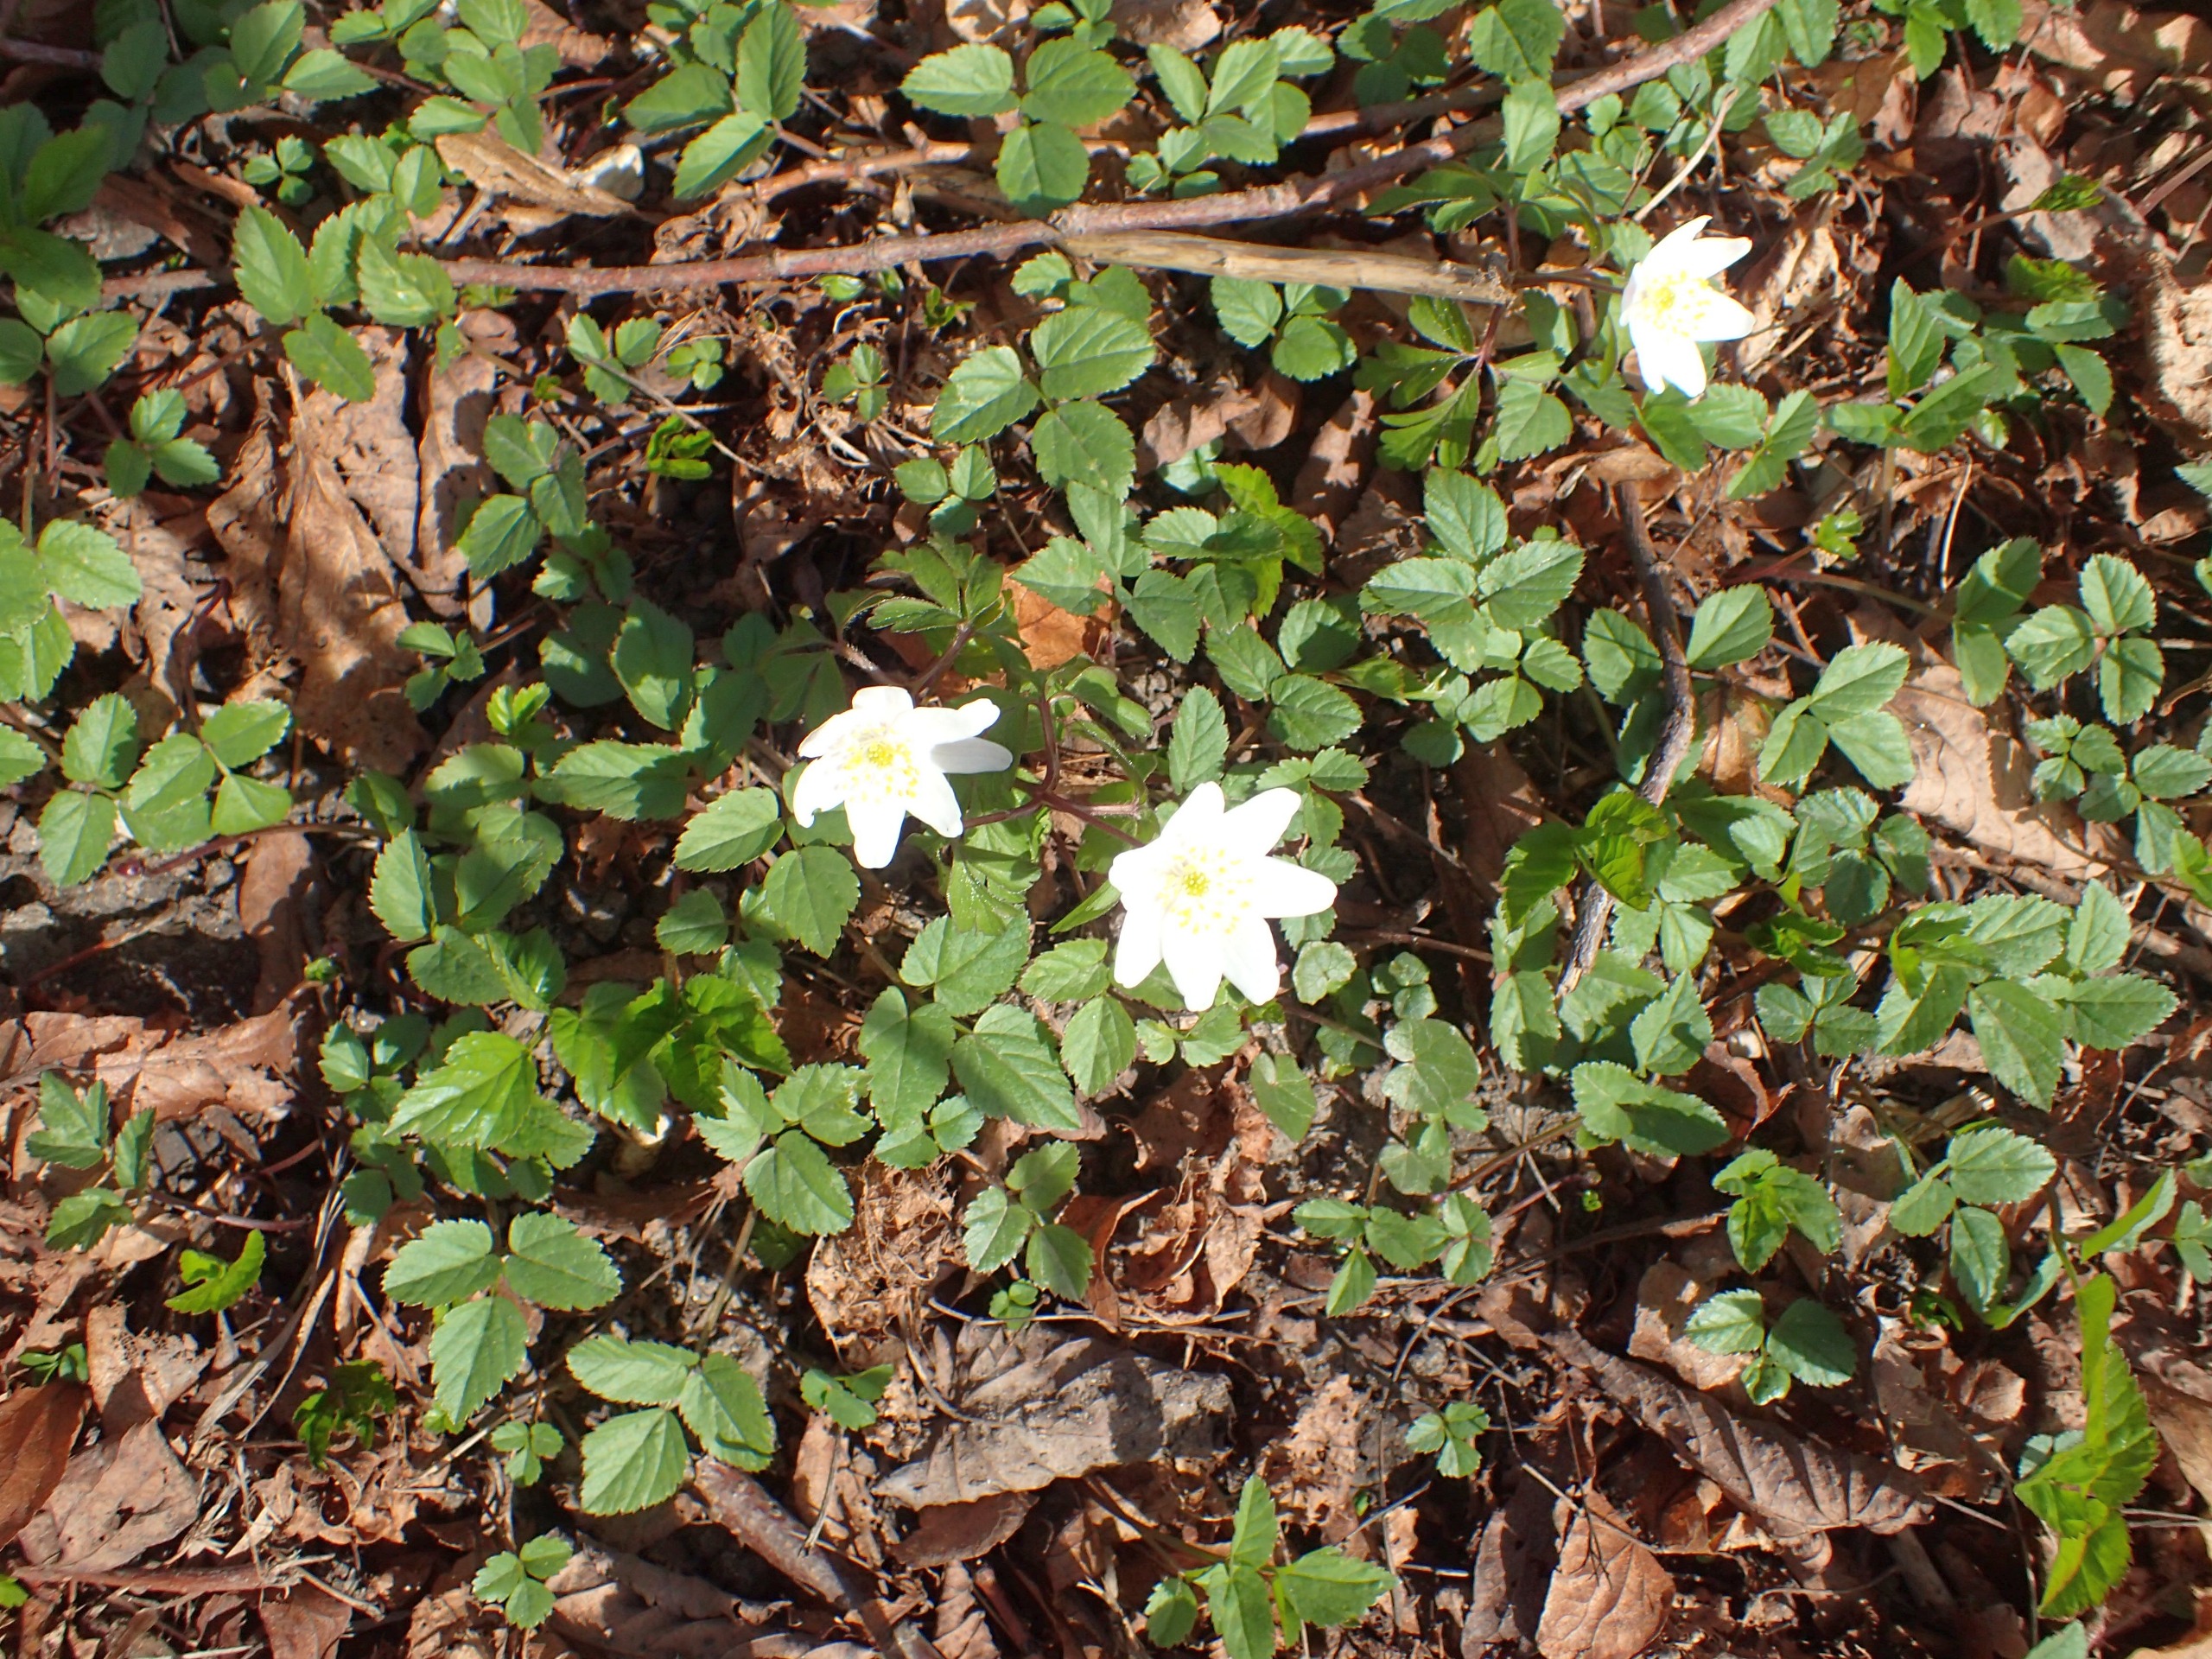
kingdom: Plantae
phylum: Tracheophyta
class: Magnoliopsida
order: Ranunculales
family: Ranunculaceae
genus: Anemone
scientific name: Anemone nemorosa
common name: Hvid anemone
